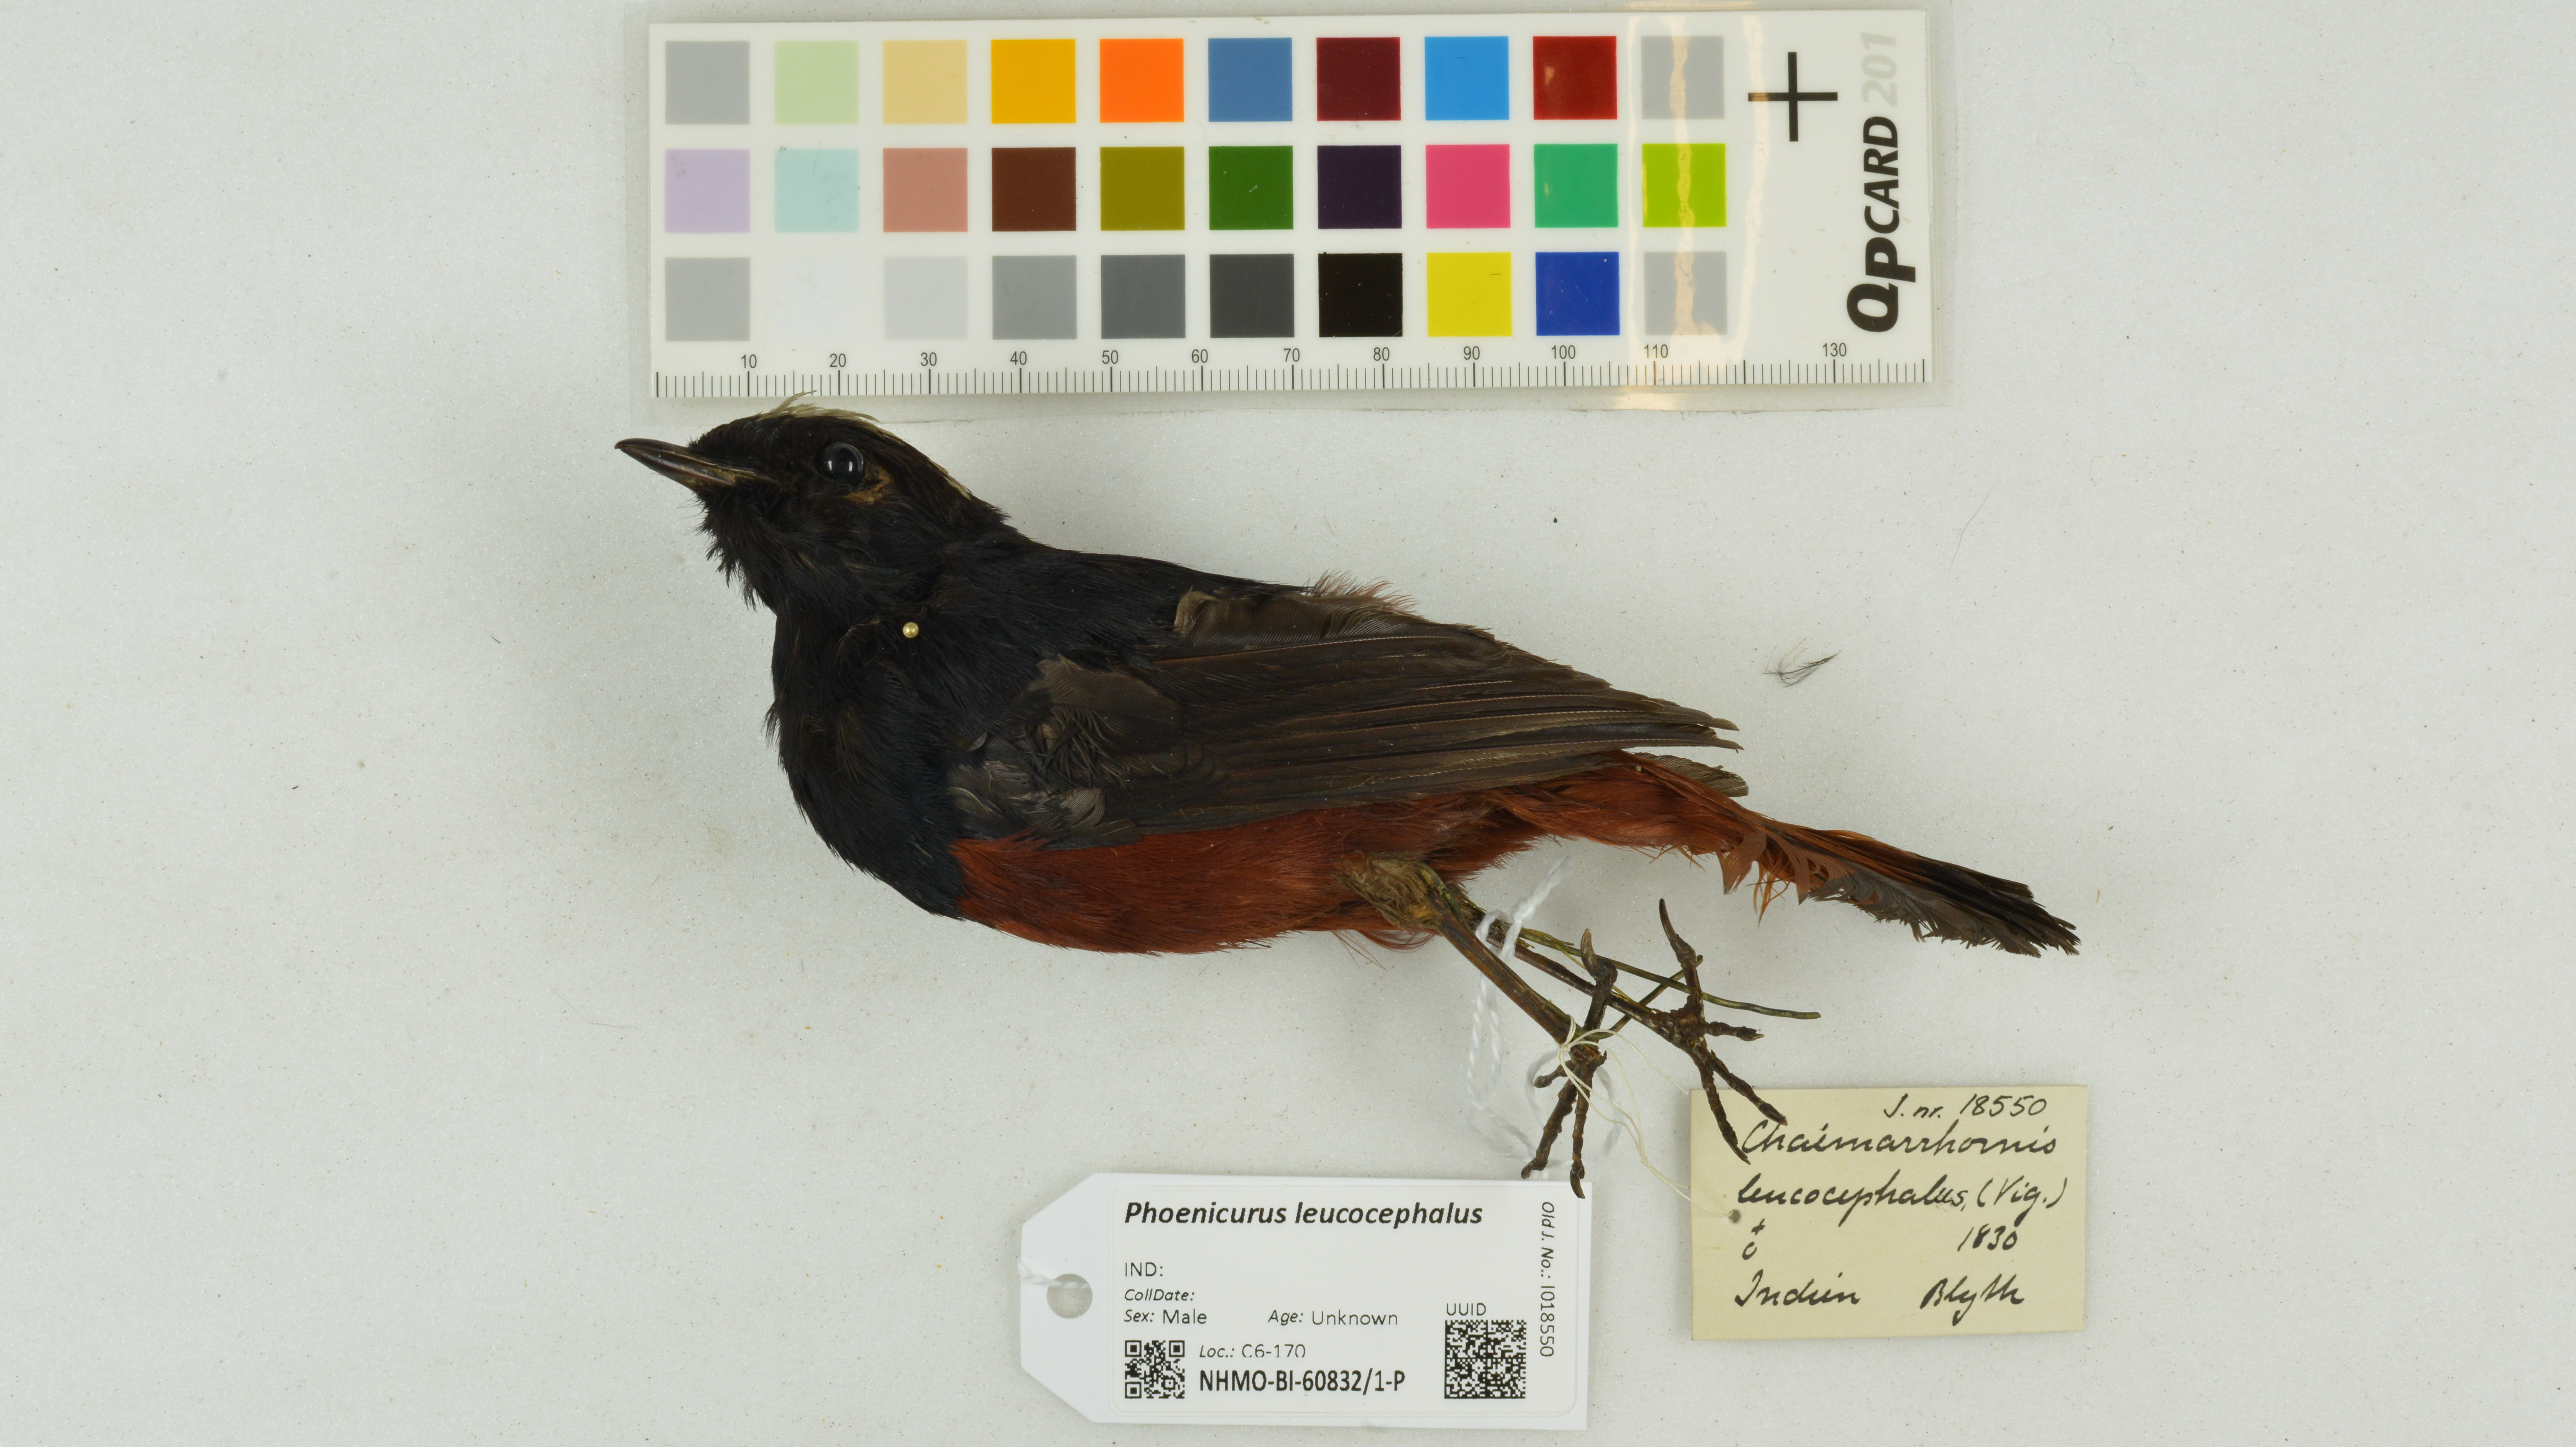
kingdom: Animalia
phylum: Chordata
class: Aves
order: Passeriformes
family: Muscicapidae
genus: Chaimarrornis
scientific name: Chaimarrornis leucocephalus
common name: White-capped redstart
